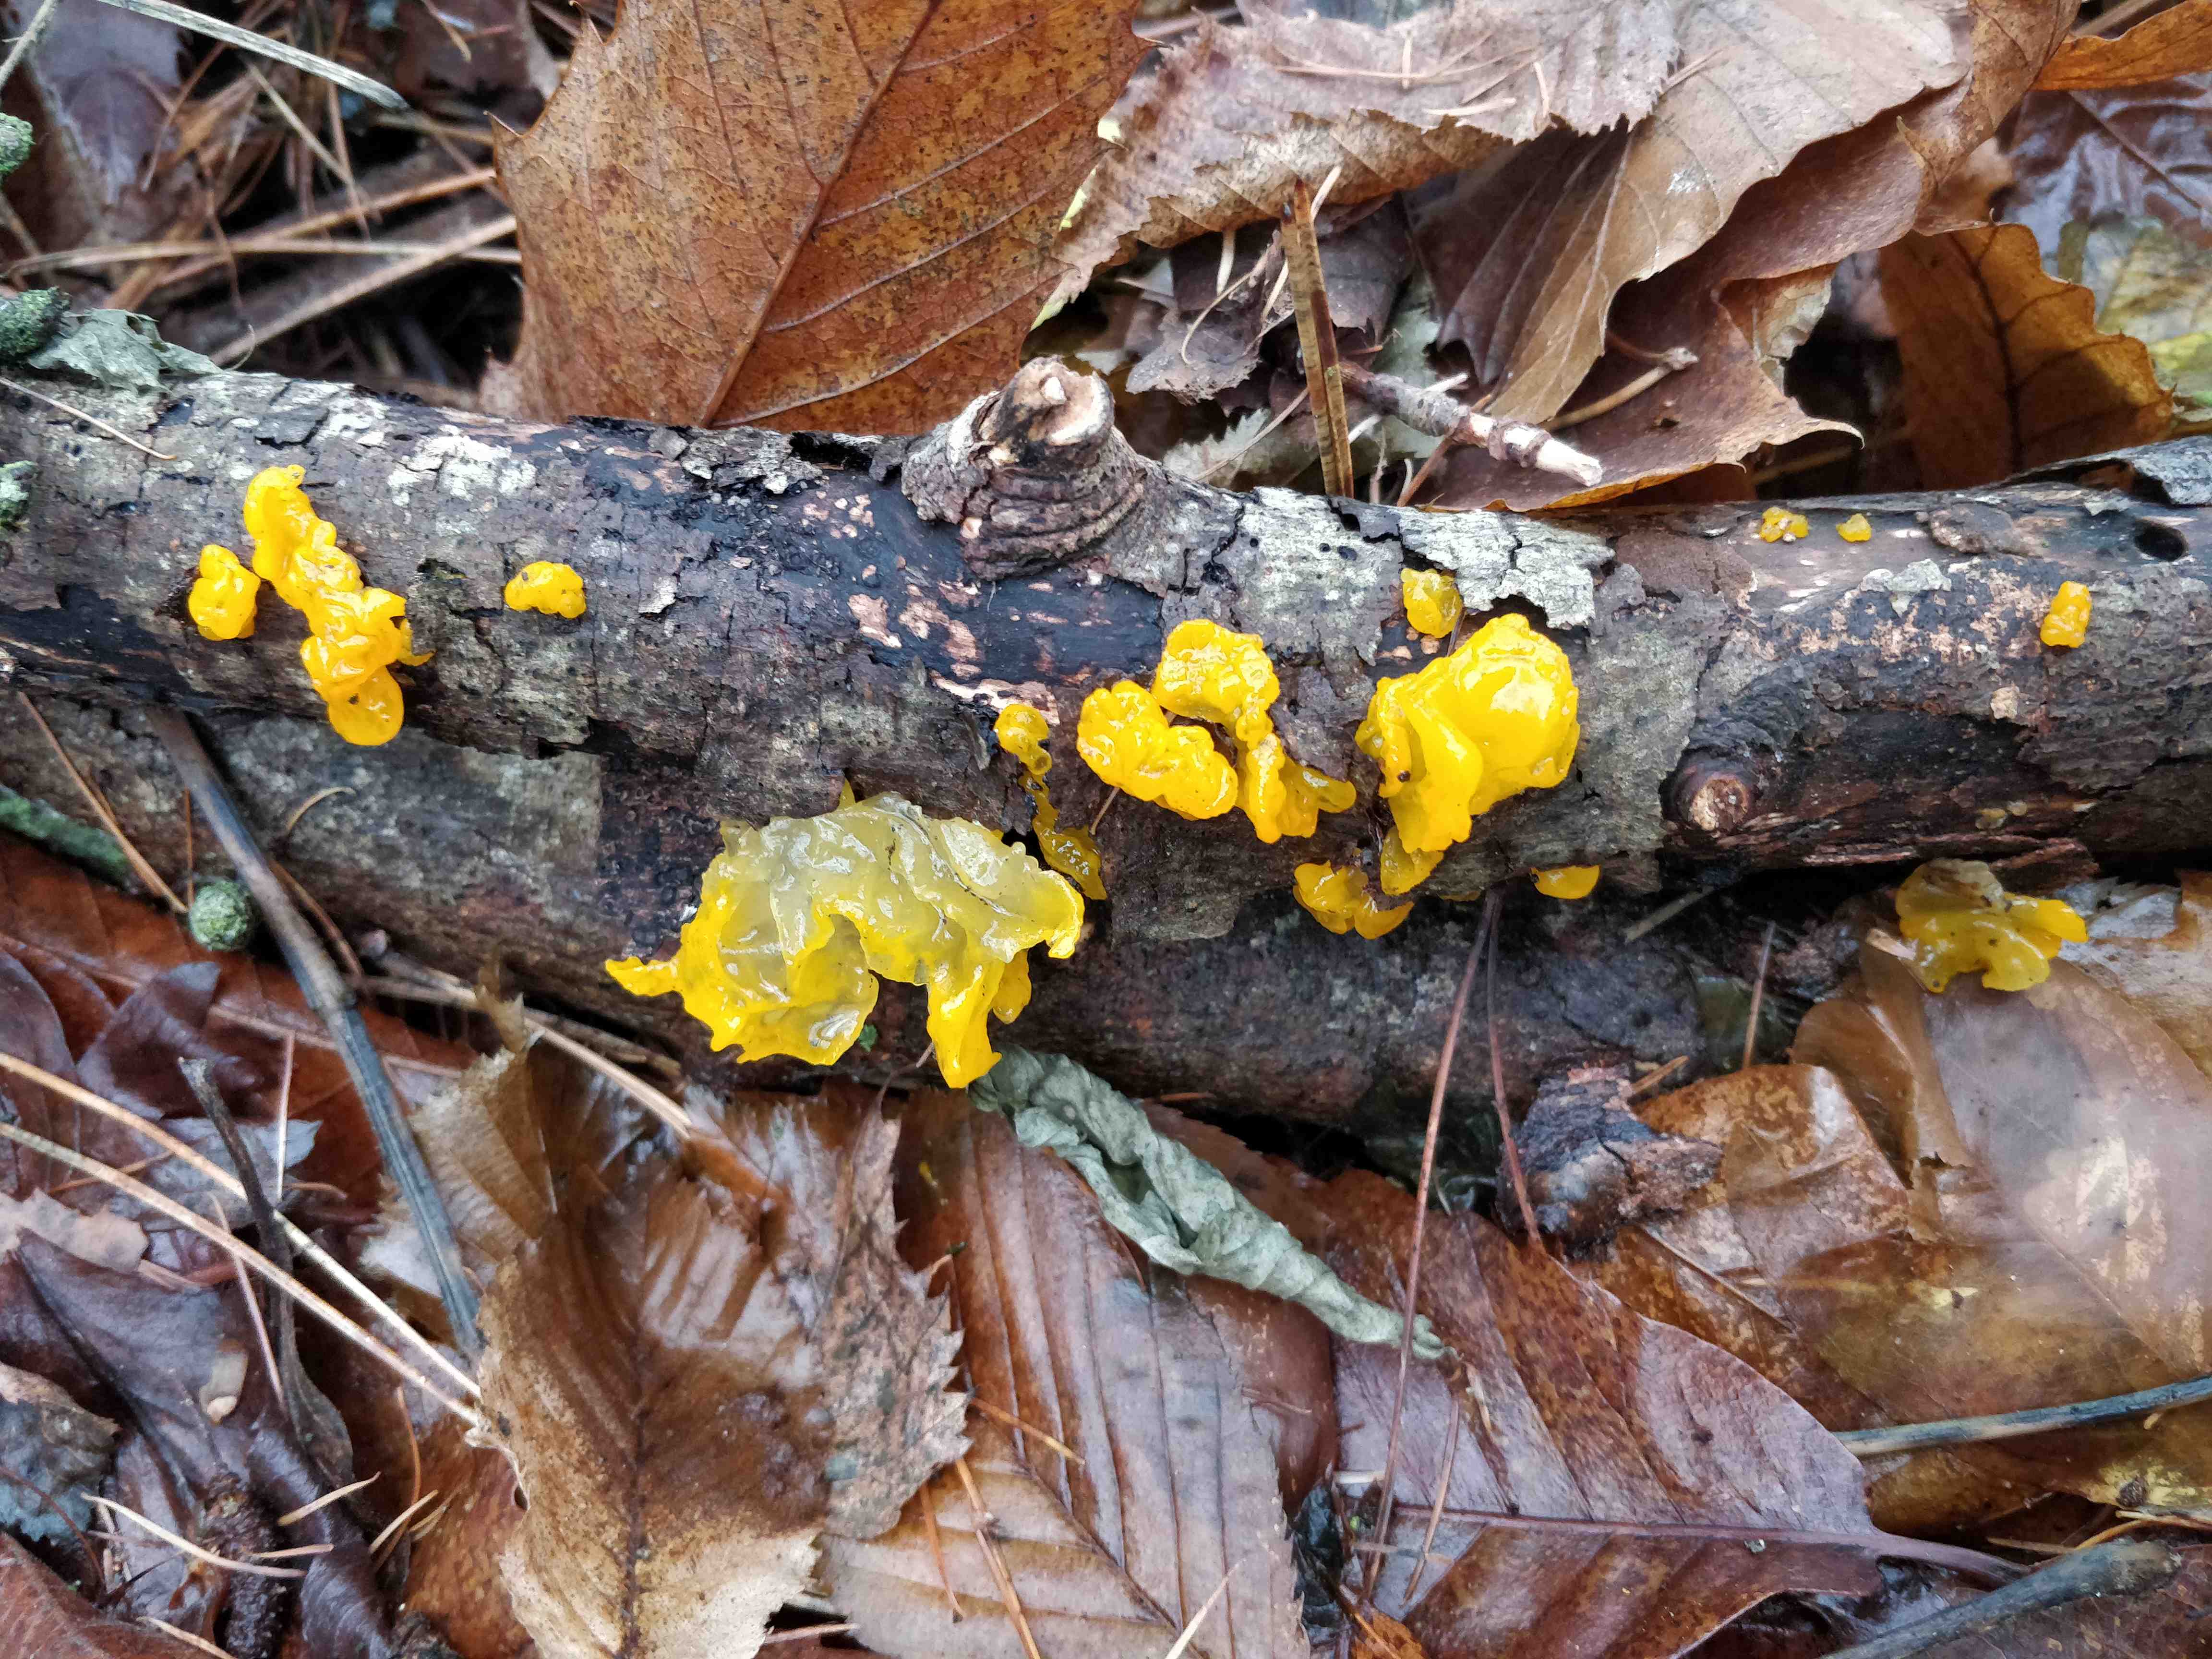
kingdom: Fungi
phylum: Basidiomycota
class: Tremellomycetes
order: Tremellales
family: Tremellaceae
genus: Tremella
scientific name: Tremella mesenterica
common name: gul bævresvamp
